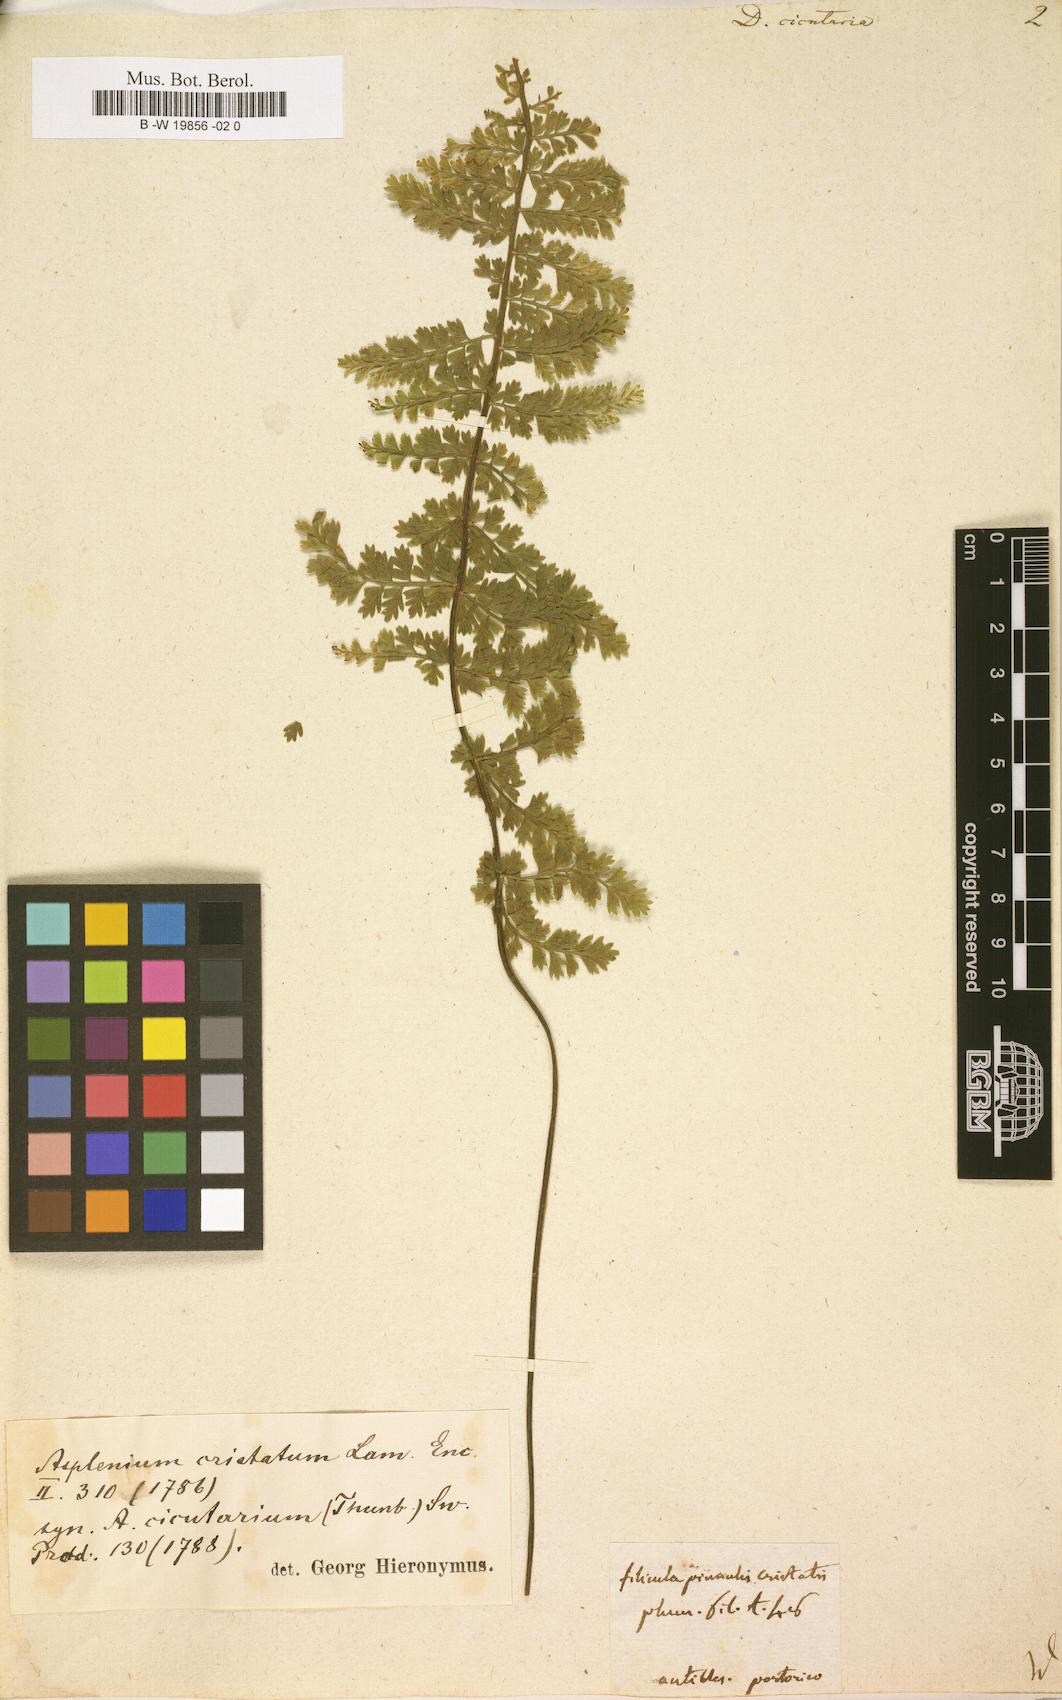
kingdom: Plantae
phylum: Tracheophyta
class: Polypodiopsida
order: Polypodiales
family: Aspleniaceae
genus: Asplenium
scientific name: Asplenium cristatum
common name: Parsley spleenwort
